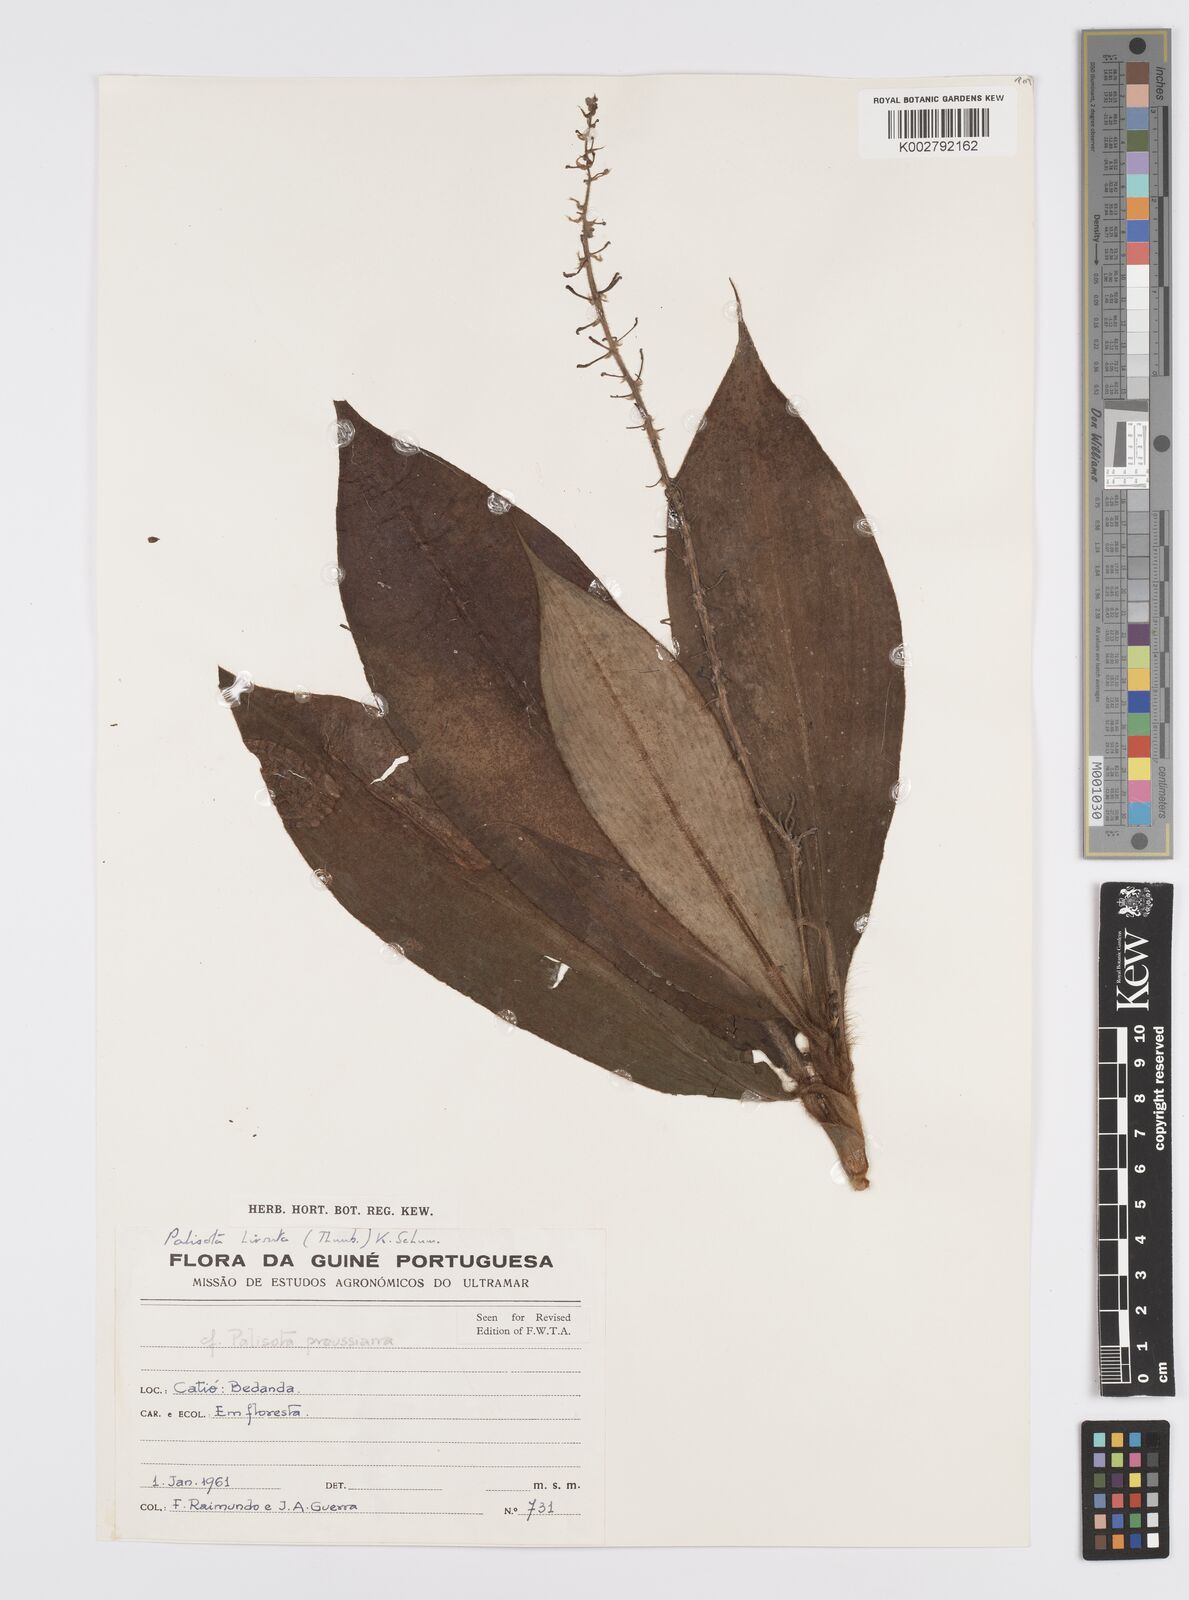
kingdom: Plantae
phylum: Tracheophyta
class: Liliopsida
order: Commelinales
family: Commelinaceae
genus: Palisota
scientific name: Palisota hirsuta
